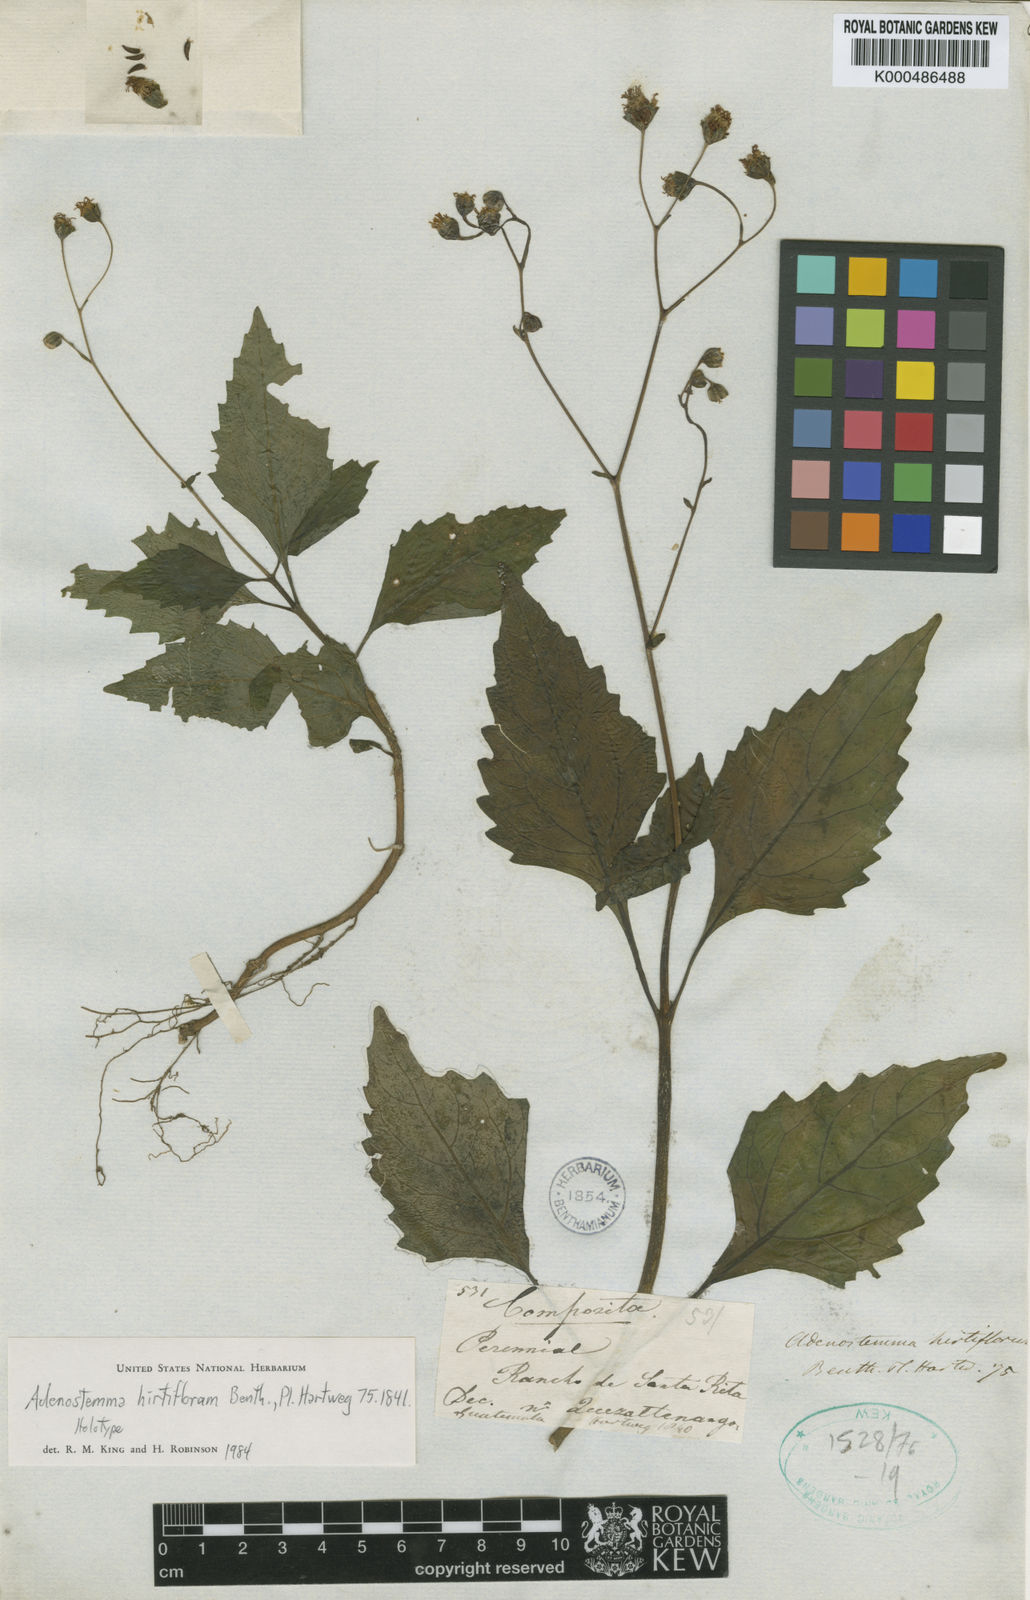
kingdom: Plantae
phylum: Tracheophyta
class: Magnoliopsida
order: Asterales
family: Asteraceae
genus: Adenostemma
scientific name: Adenostemma hirtiflorum
